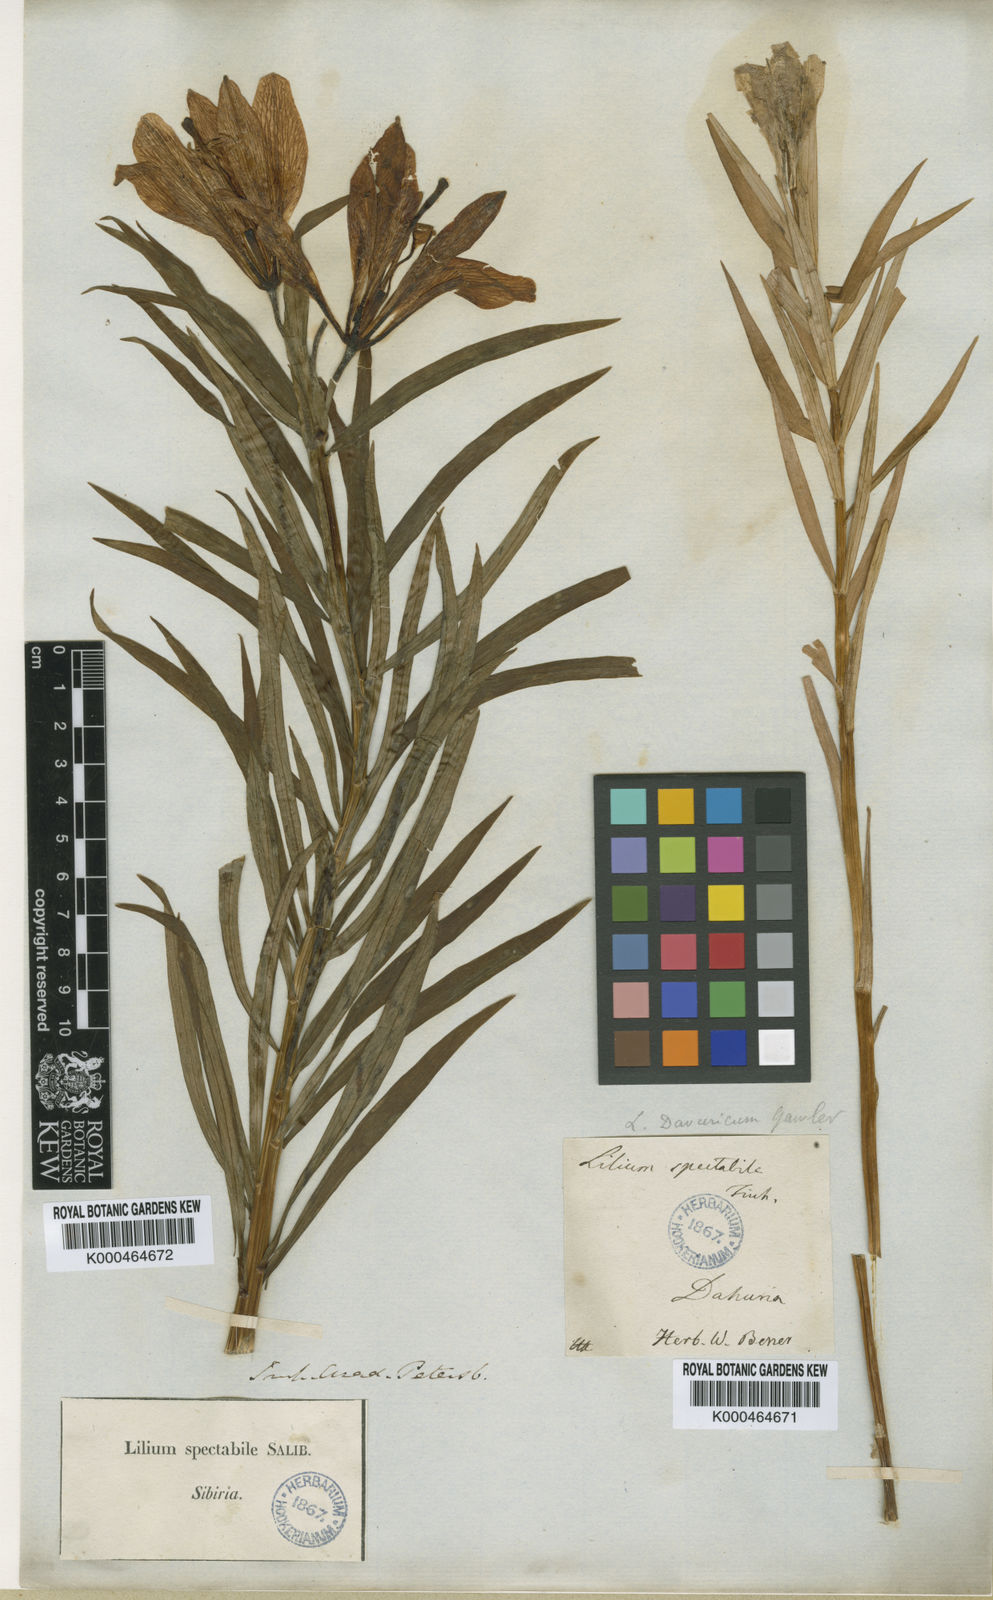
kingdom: Plantae
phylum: Tracheophyta
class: Liliopsida
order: Liliales
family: Liliaceae
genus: Lilium
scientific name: Lilium
